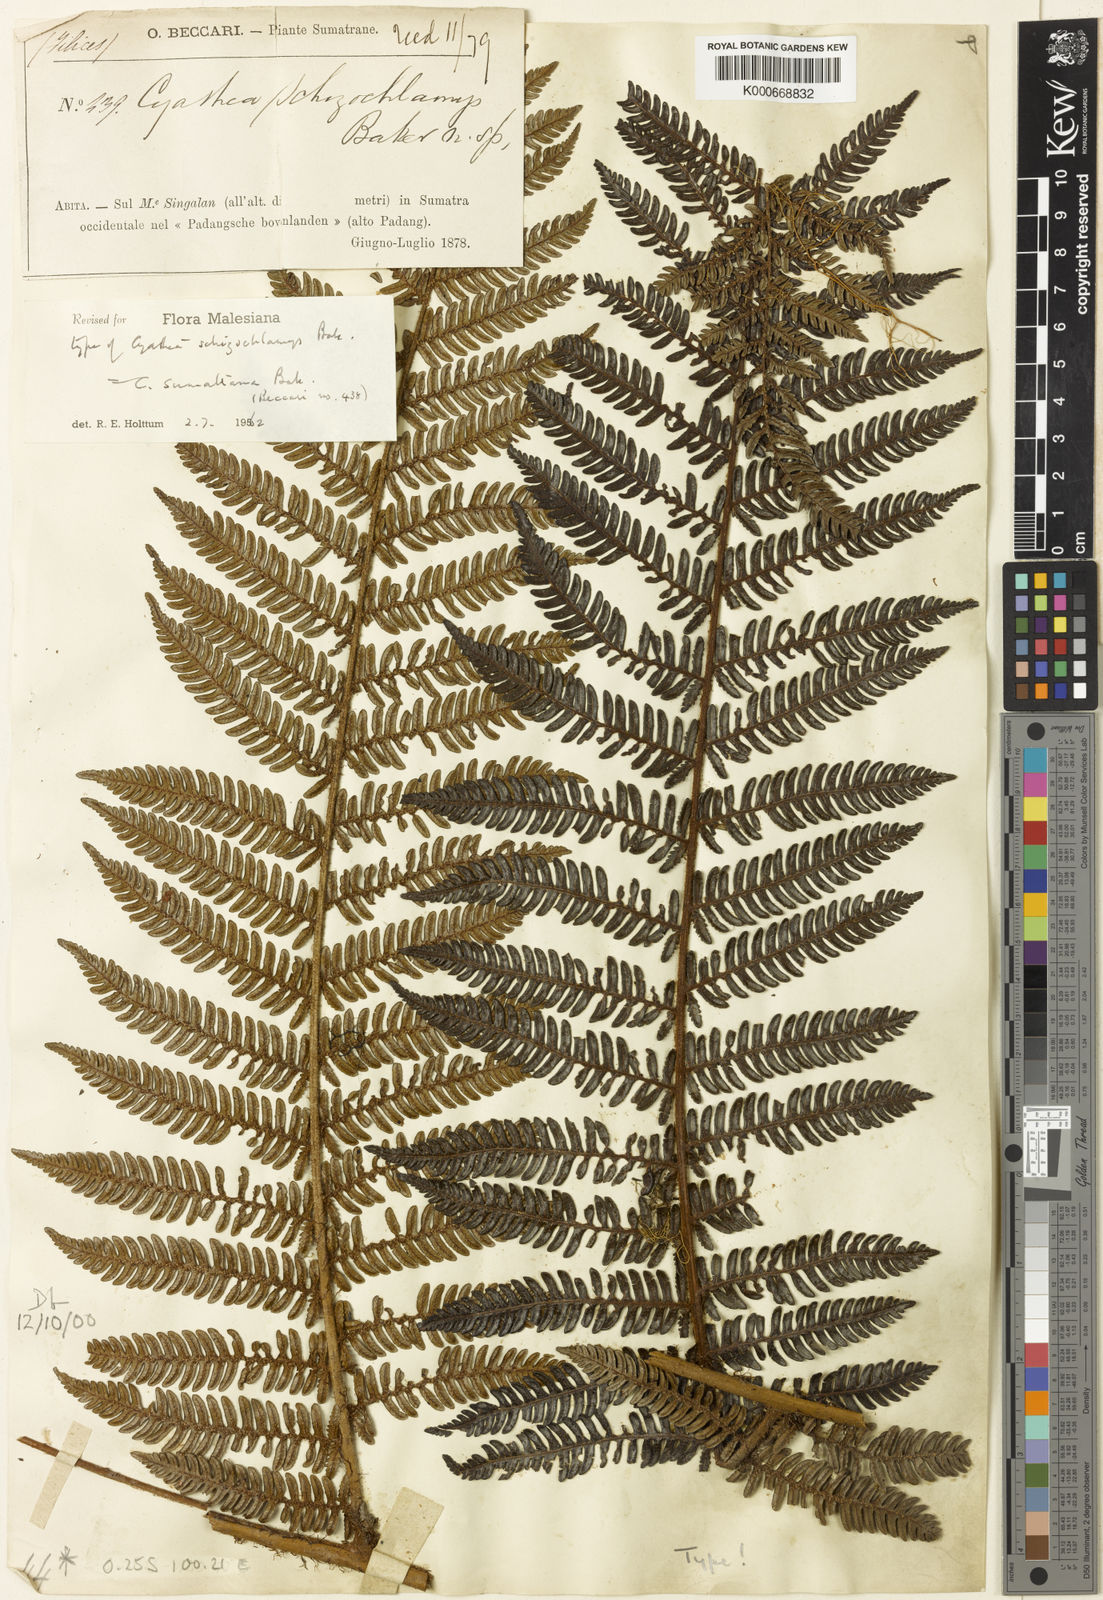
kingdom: Plantae
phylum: Tracheophyta
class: Polypodiopsida
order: Cyatheales
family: Cyatheaceae
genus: Alsophila
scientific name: Alsophila sumatrana
